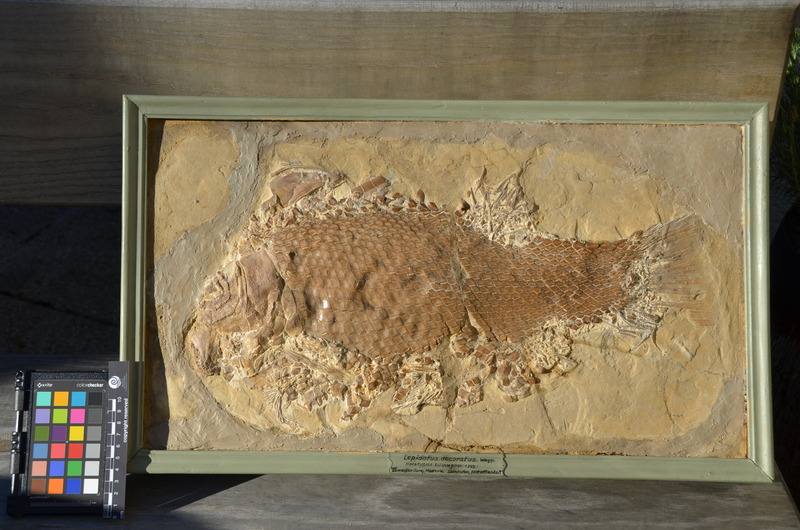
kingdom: Animalia
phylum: Chordata
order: Lepisosteiformes
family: Lepidotidae
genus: Scheenstia
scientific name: Scheenstia decoratus
